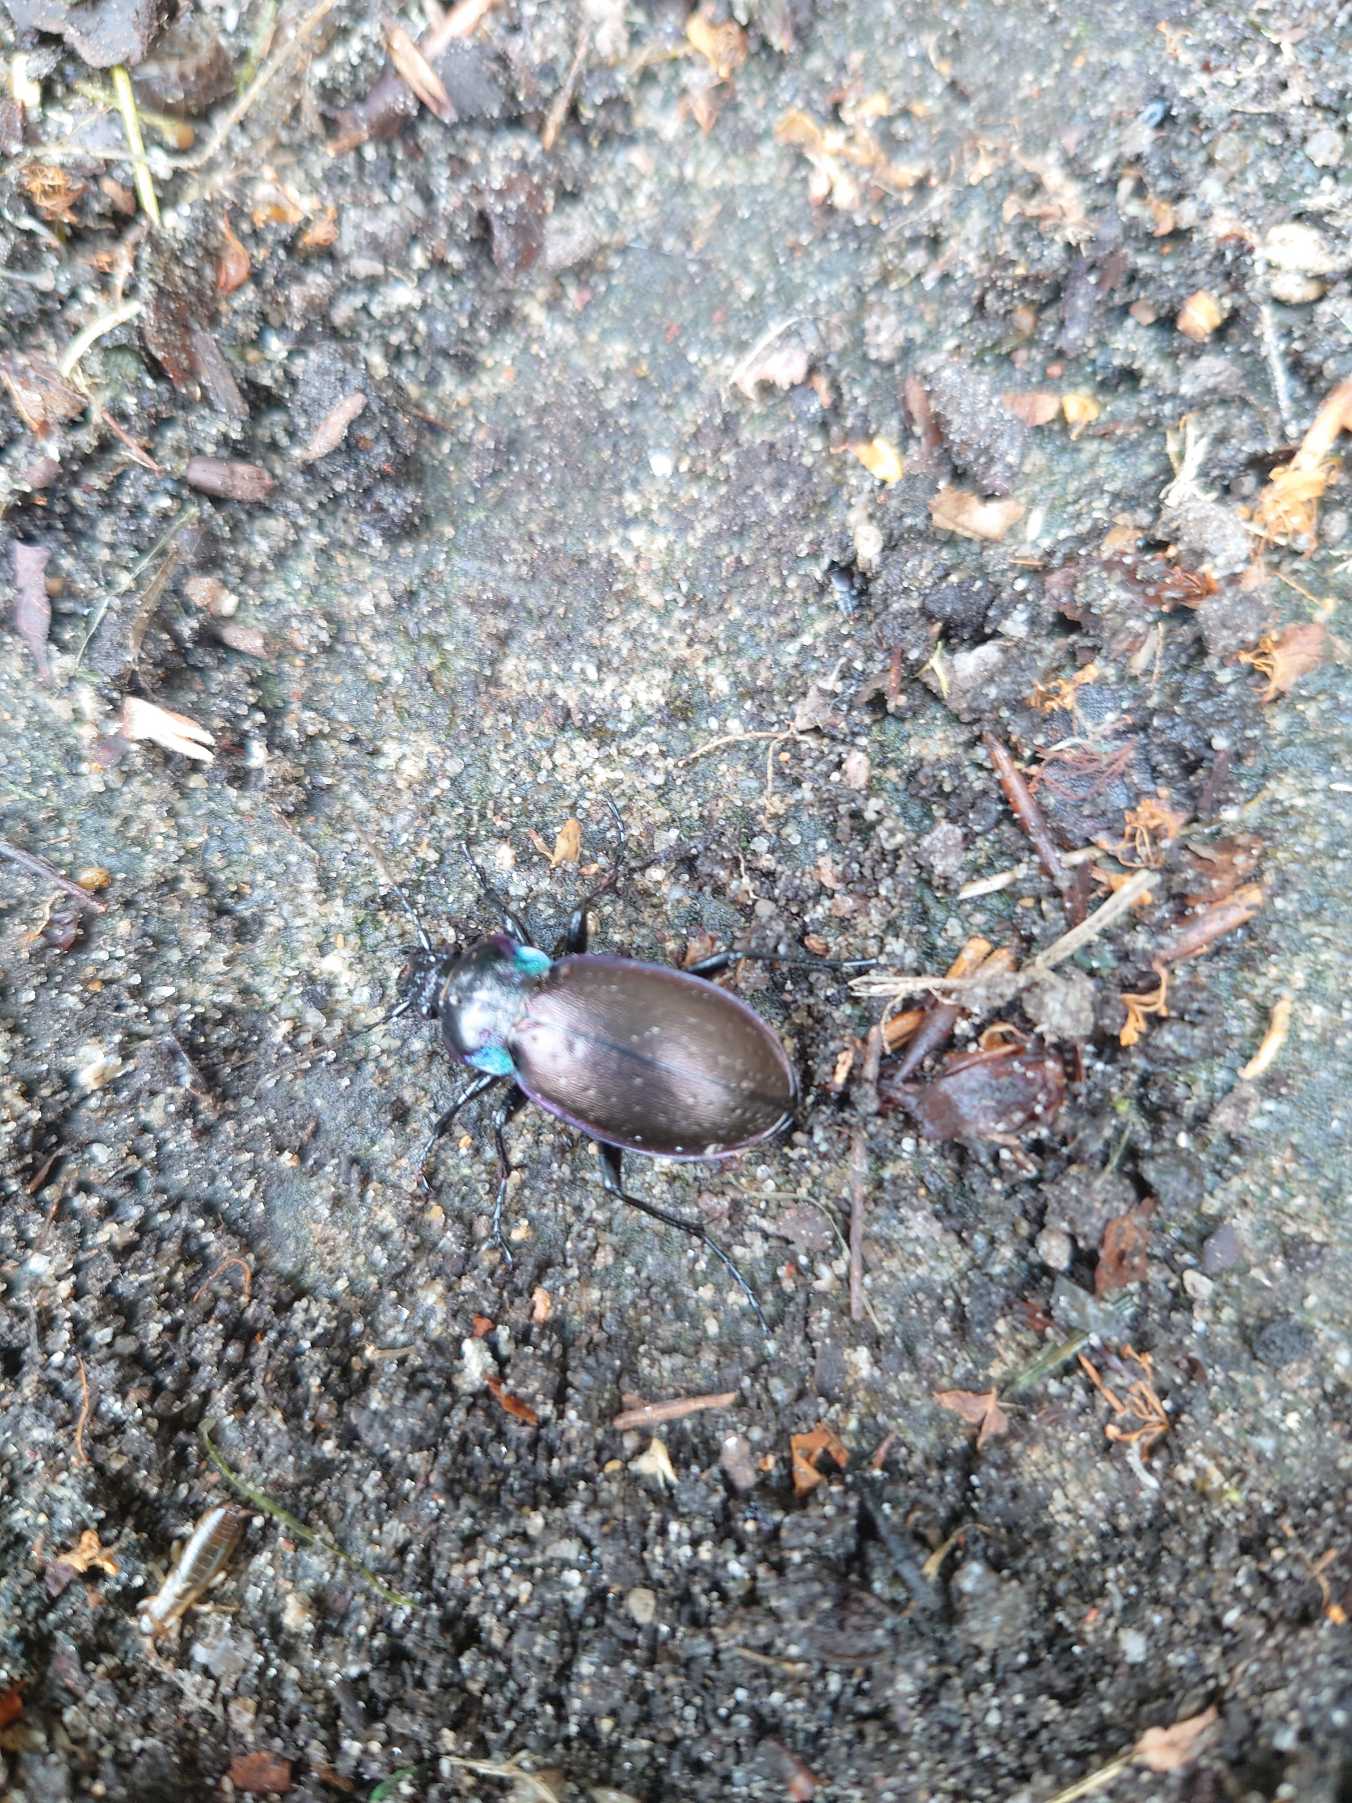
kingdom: Animalia
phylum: Arthropoda
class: Insecta
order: Coleoptera
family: Carabidae
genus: Carabus
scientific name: Carabus nemoralis
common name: Kratløber
